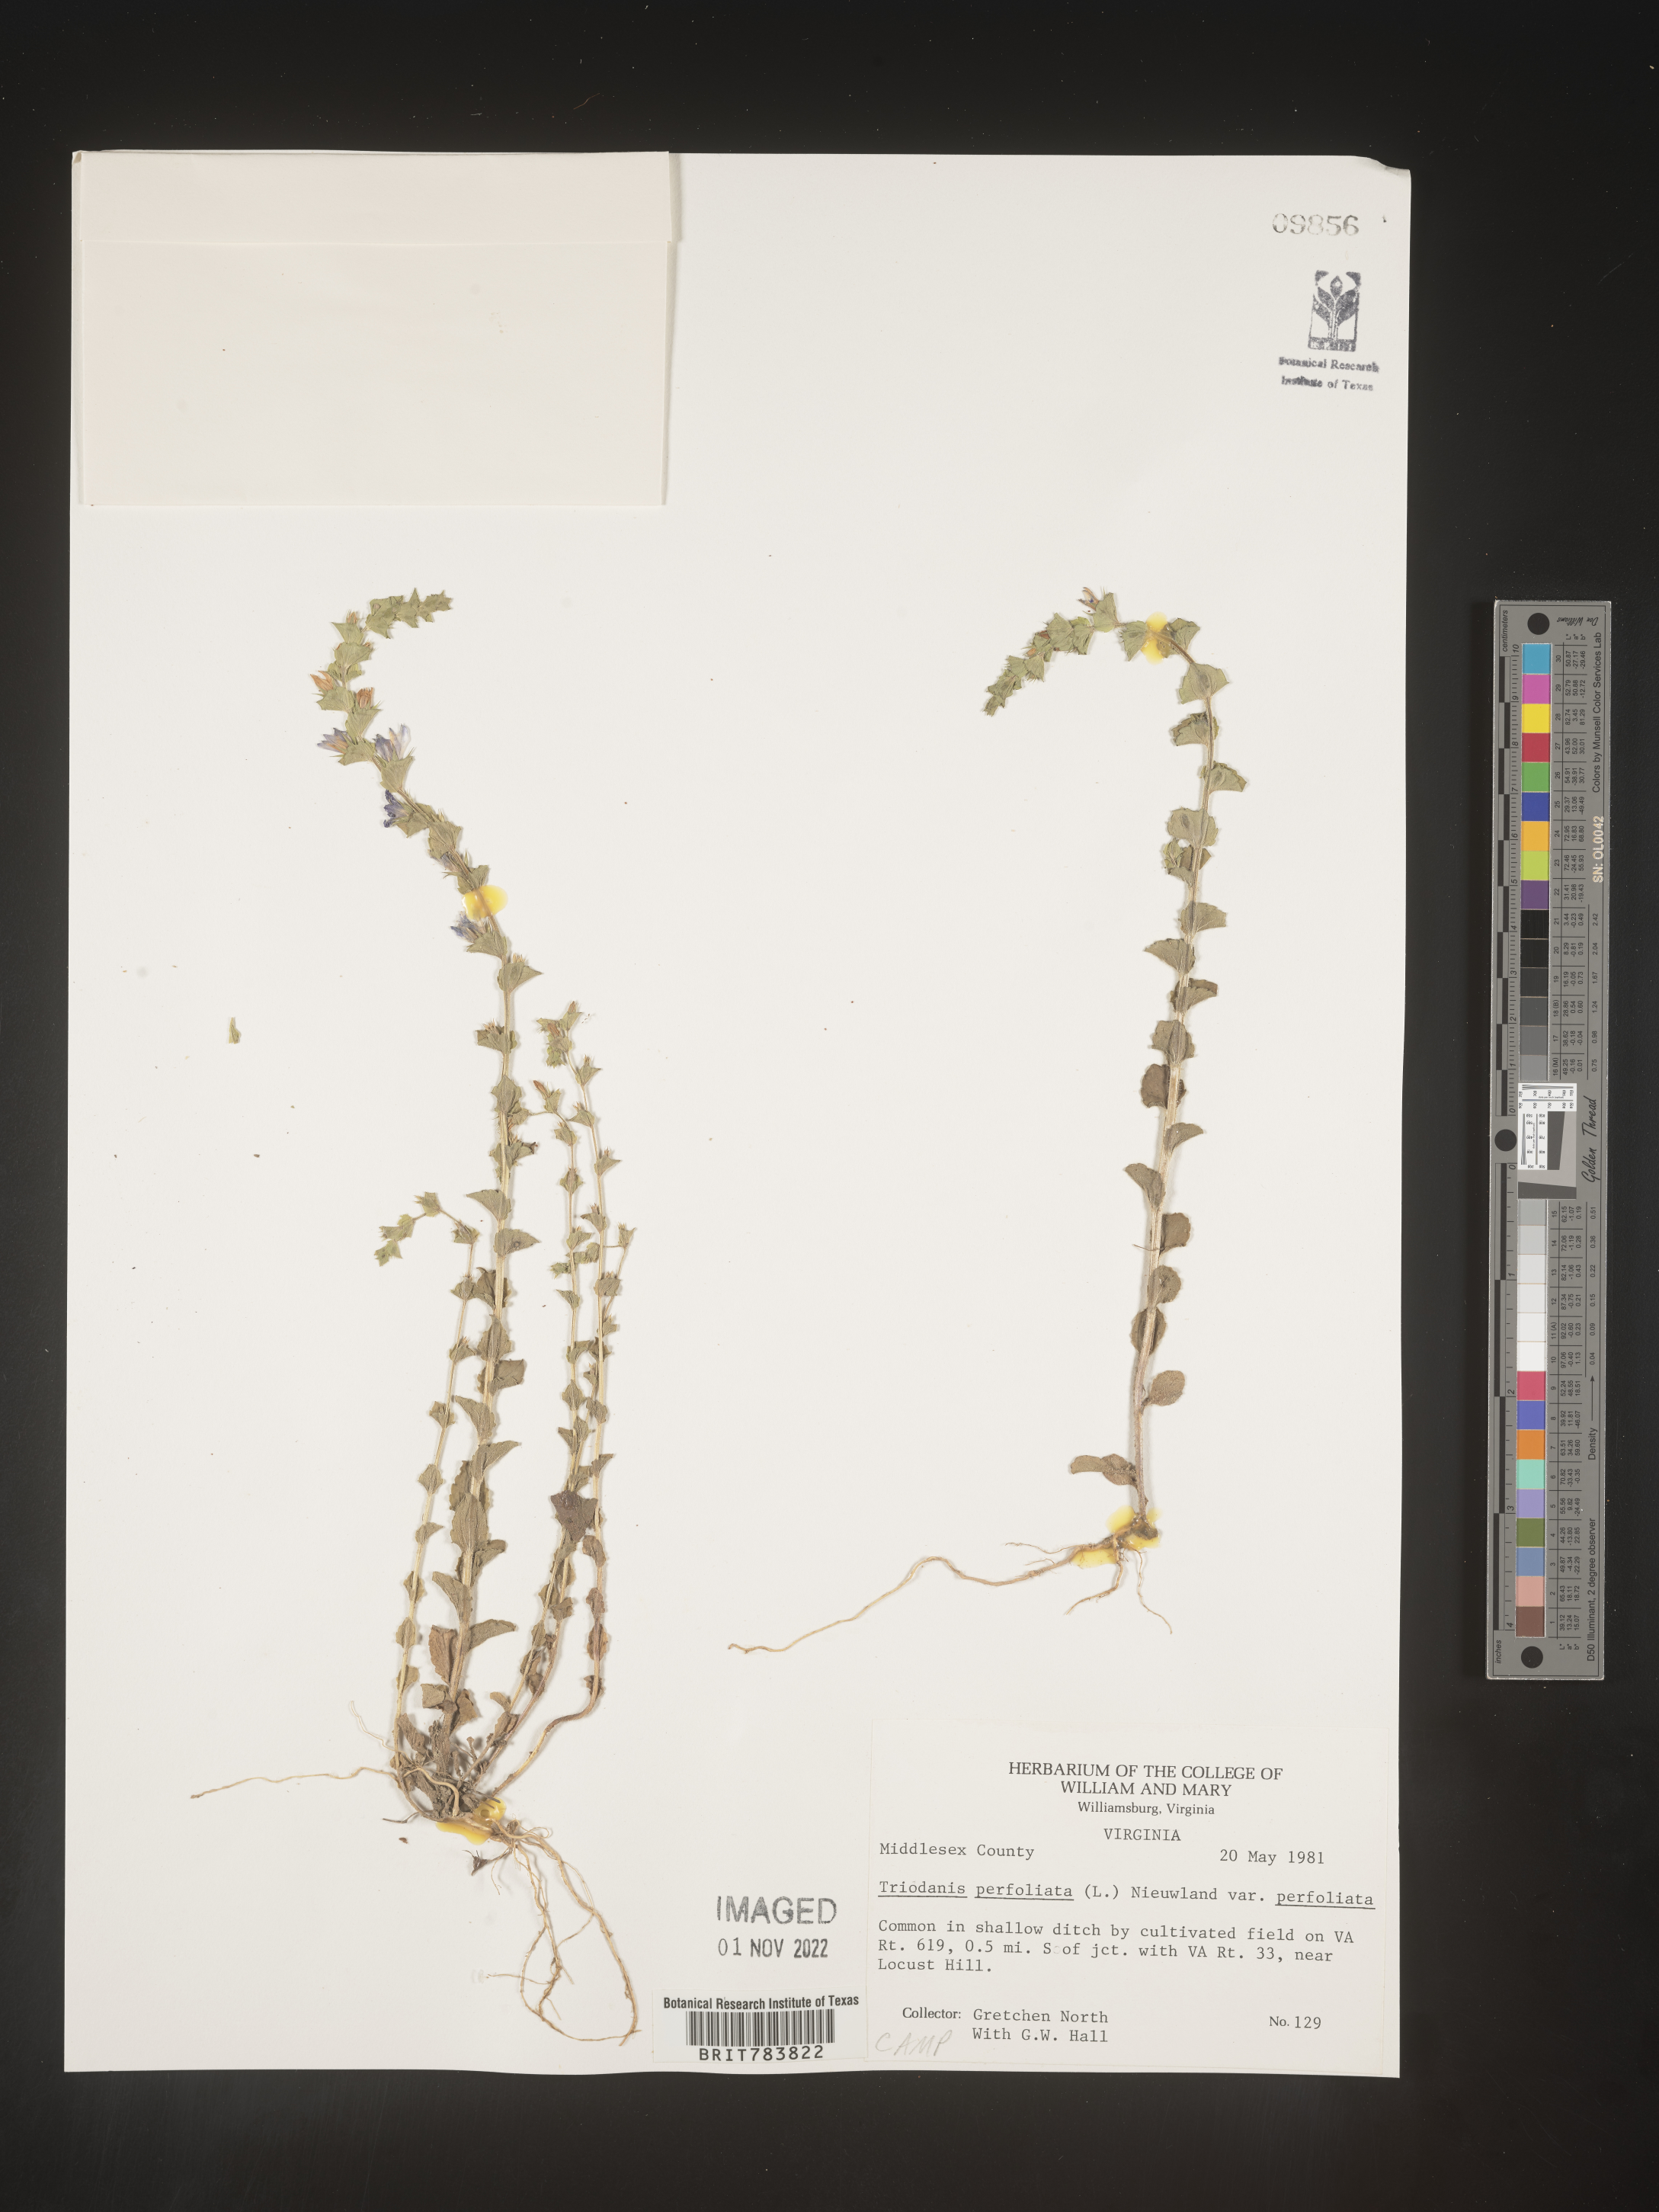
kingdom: Plantae
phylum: Tracheophyta
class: Magnoliopsida
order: Asterales
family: Campanulaceae
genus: Triodanis
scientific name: Triodanis perfoliata
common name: Clasping venus' looking-glass
